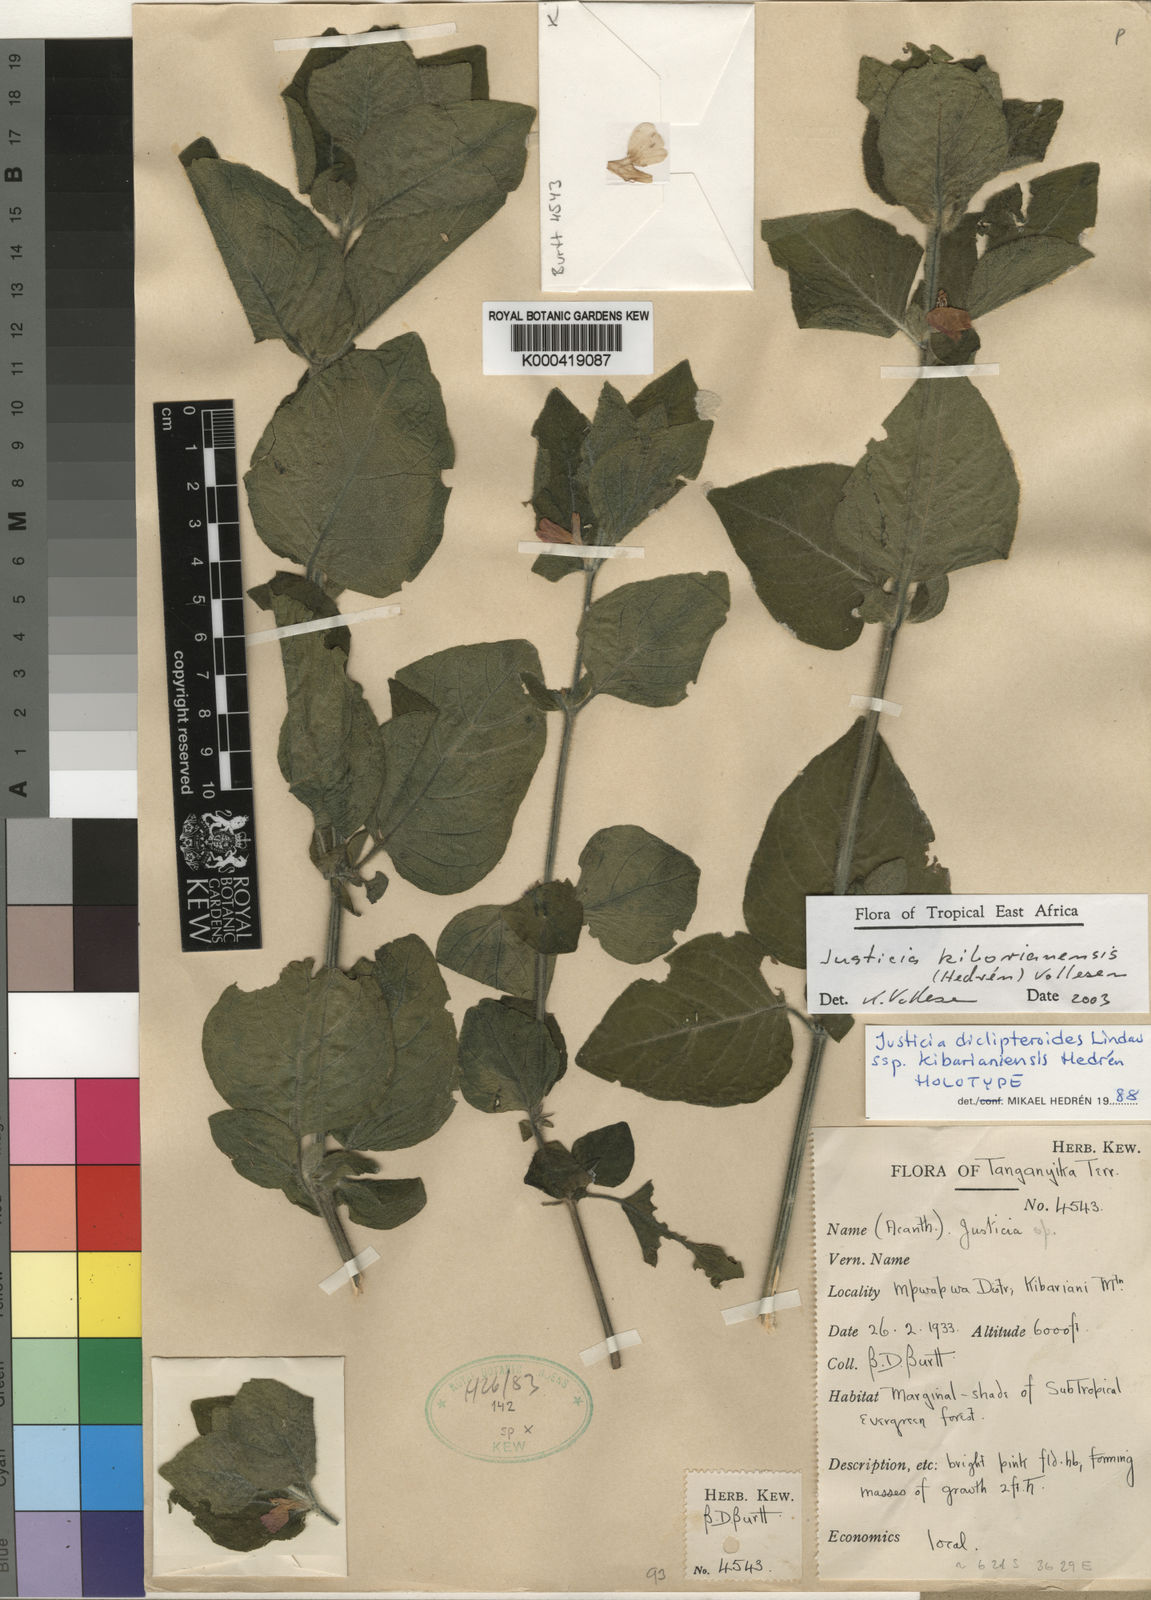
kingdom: Plantae
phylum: Tracheophyta
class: Magnoliopsida
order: Lamiales
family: Acanthaceae
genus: Justicia
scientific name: Justicia
